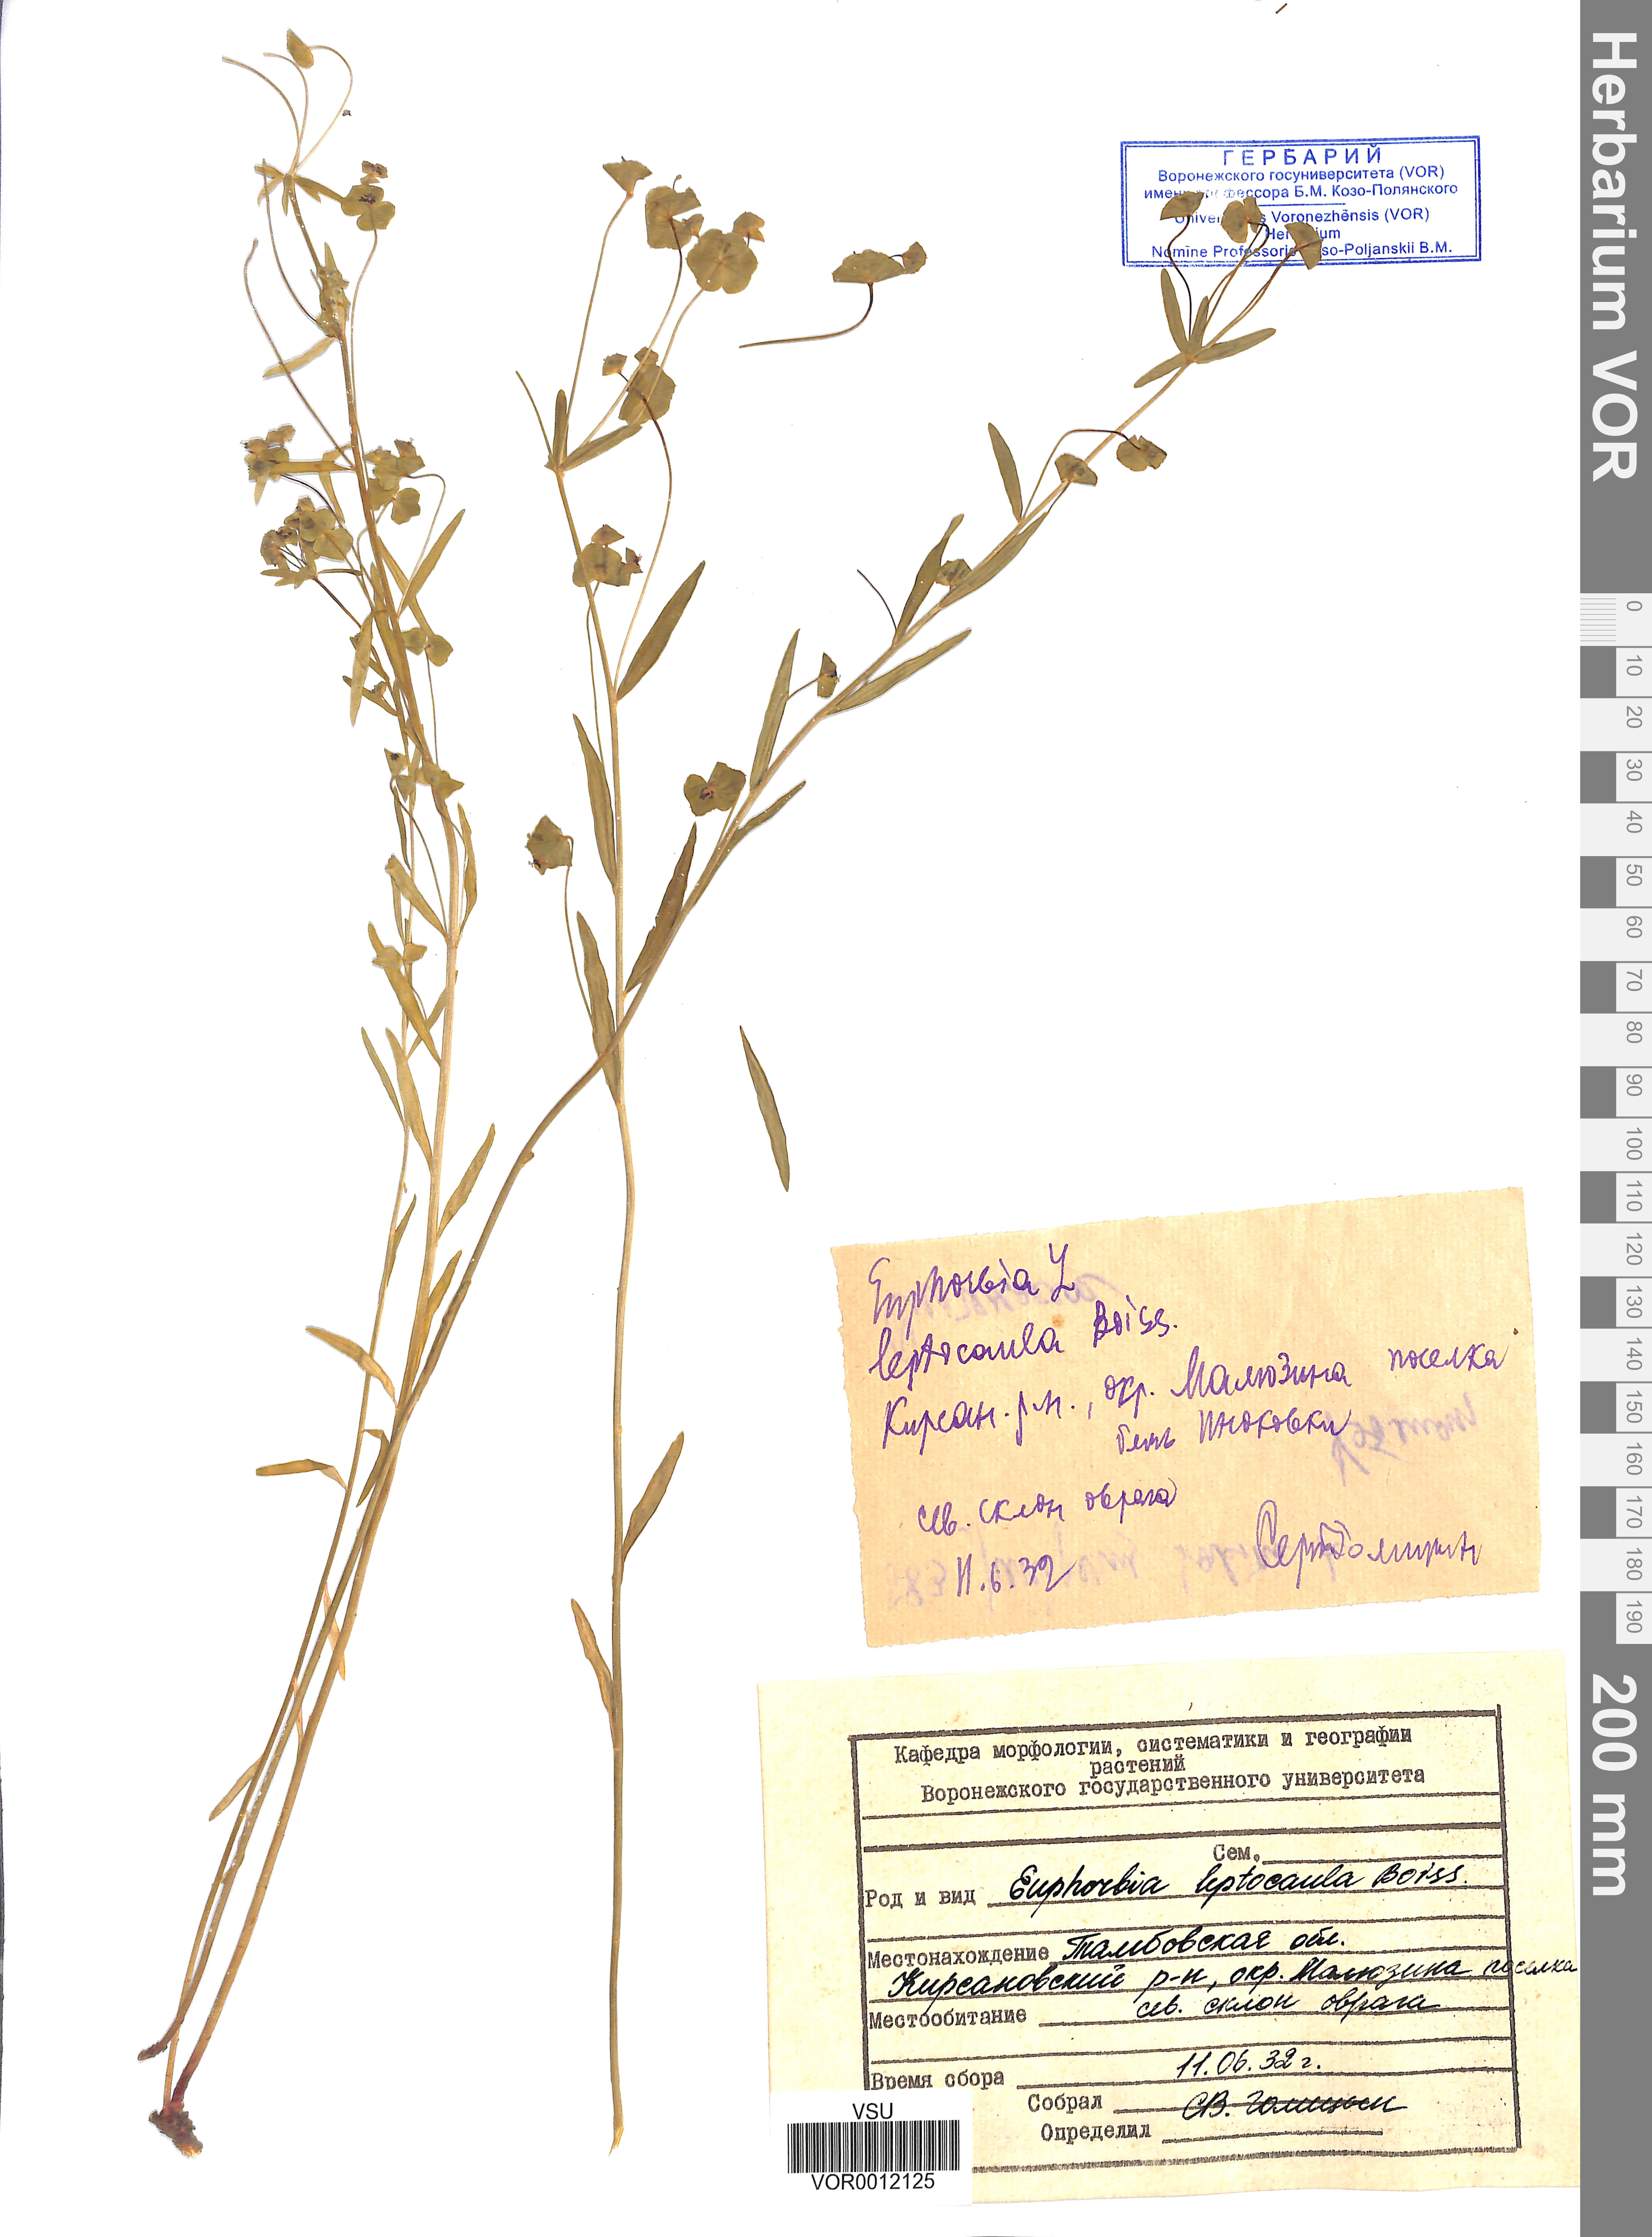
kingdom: Plantae
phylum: Tracheophyta
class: Magnoliopsida
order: Malpighiales
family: Euphorbiaceae
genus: Euphorbia
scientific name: Euphorbia leptocaula
